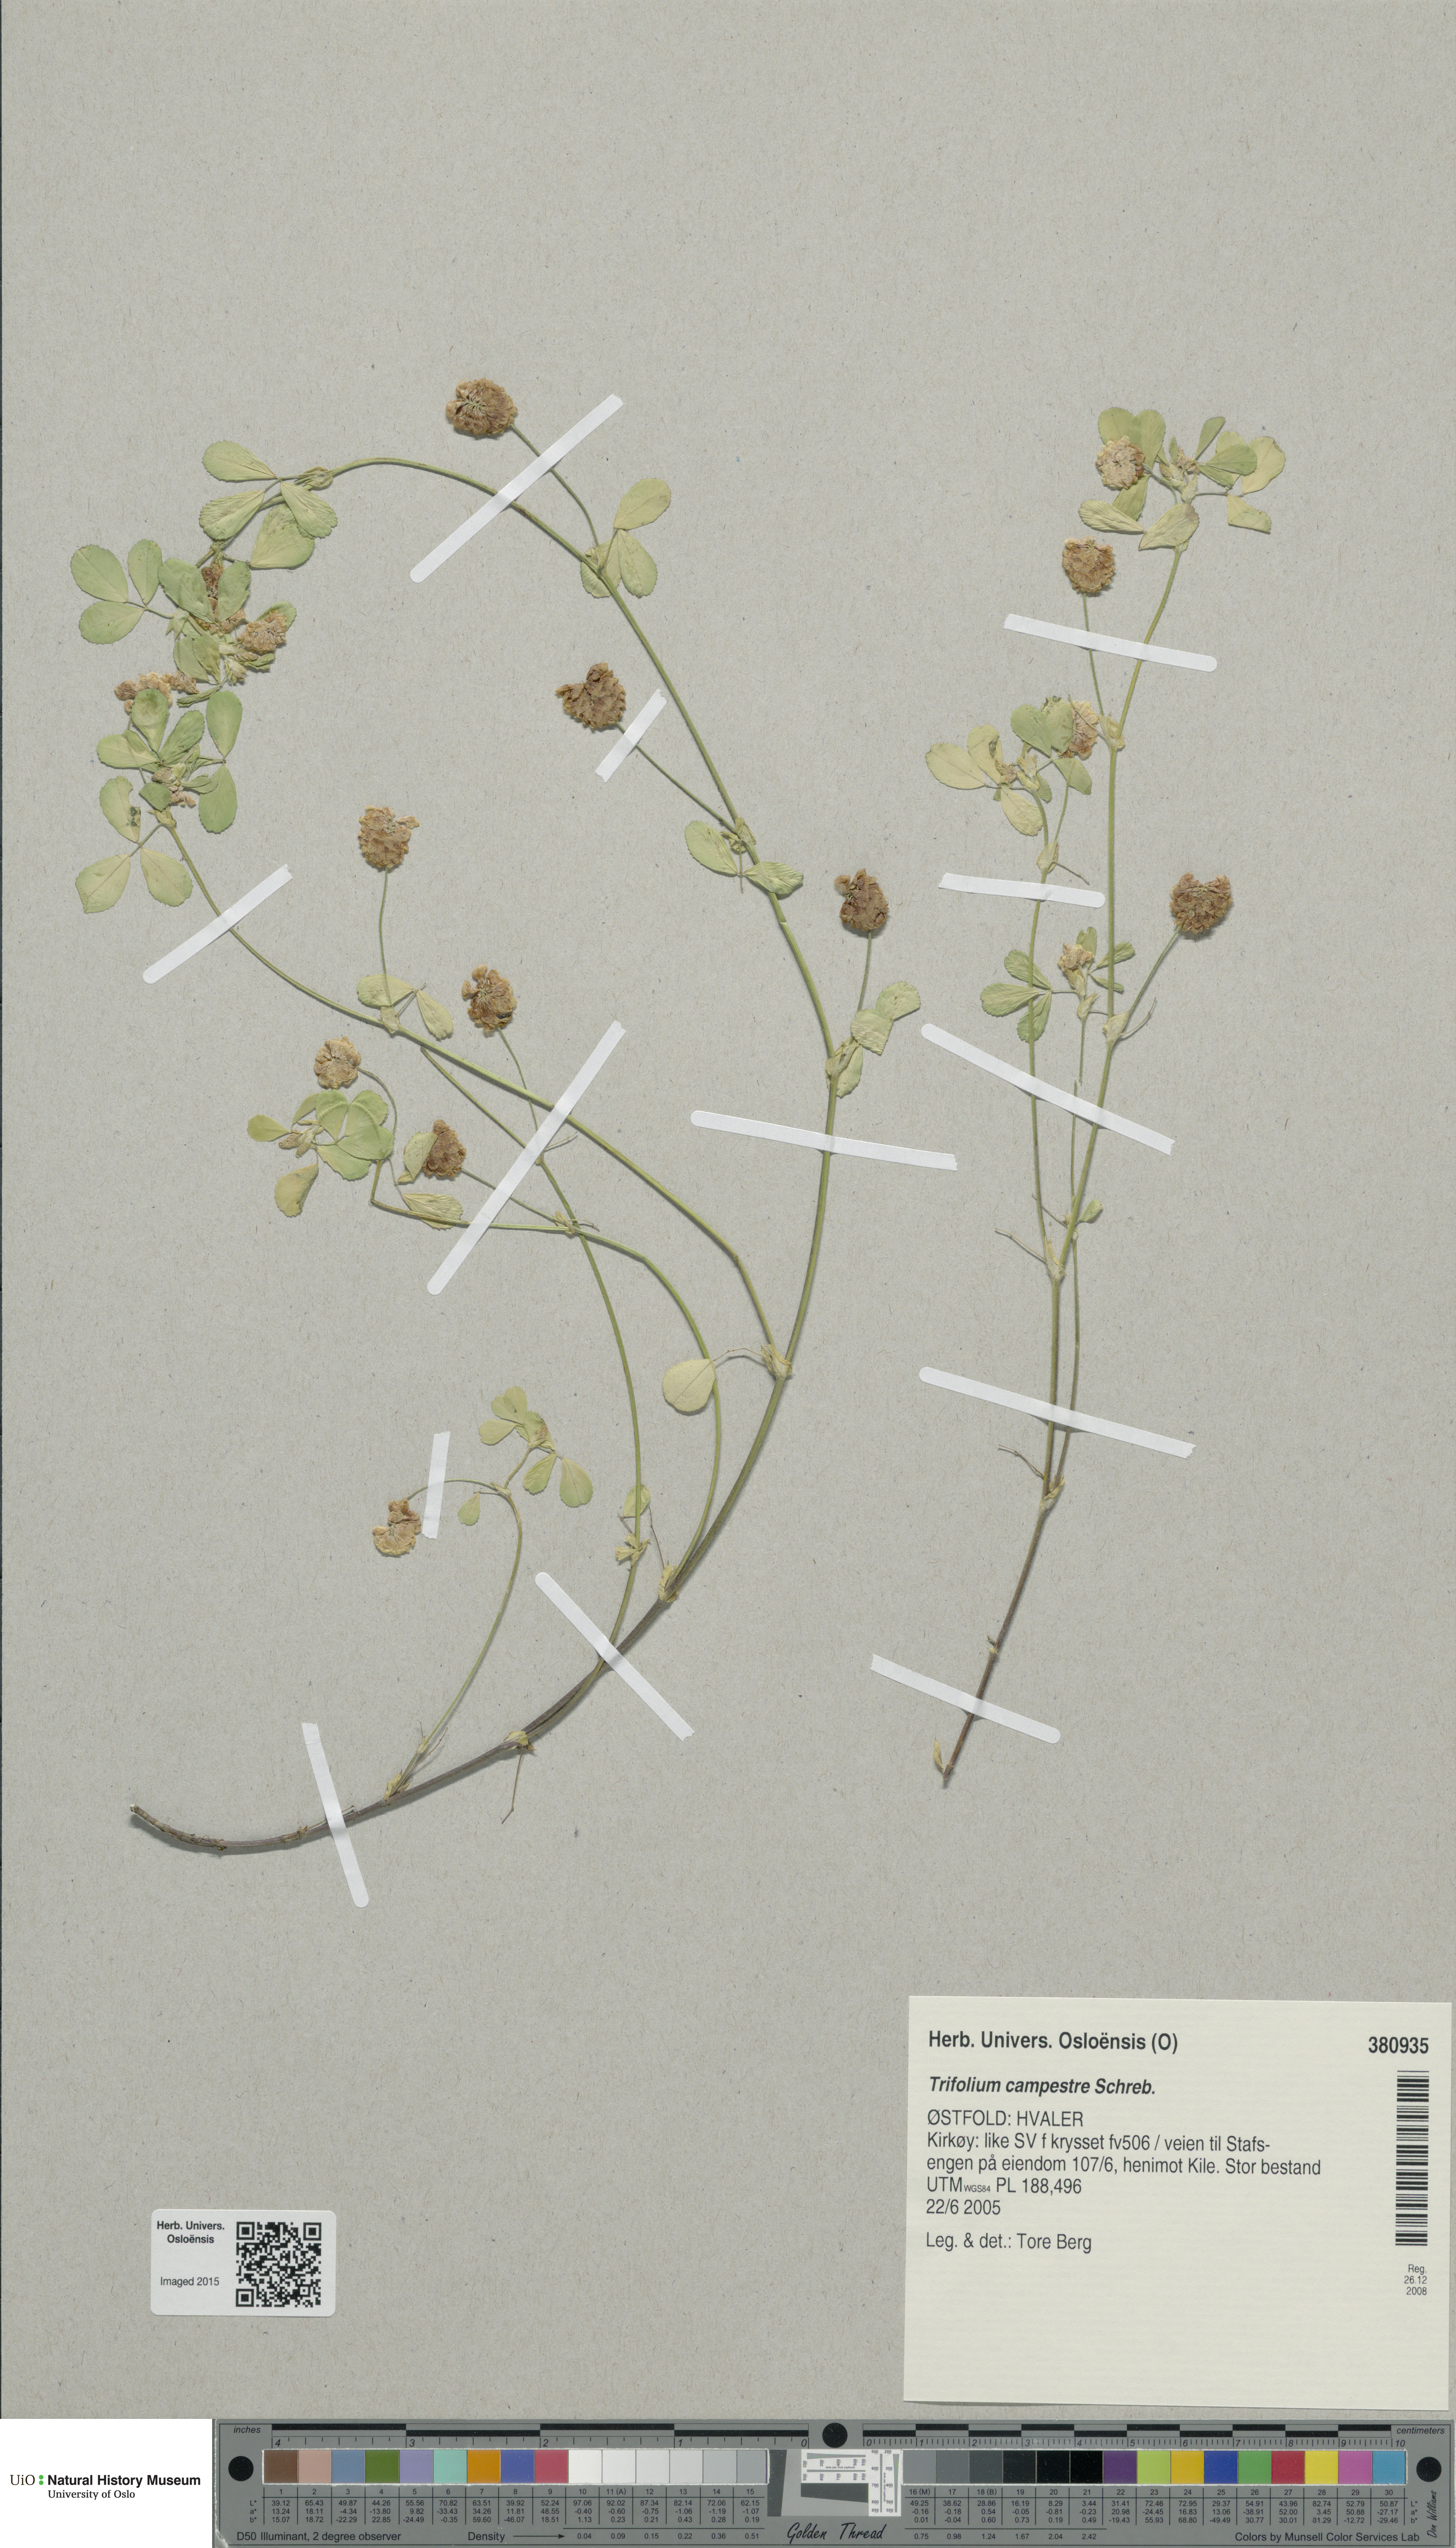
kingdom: Plantae
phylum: Tracheophyta
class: Magnoliopsida
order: Fabales
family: Fabaceae
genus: Trifolium
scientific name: Trifolium campestre
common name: Field clover
